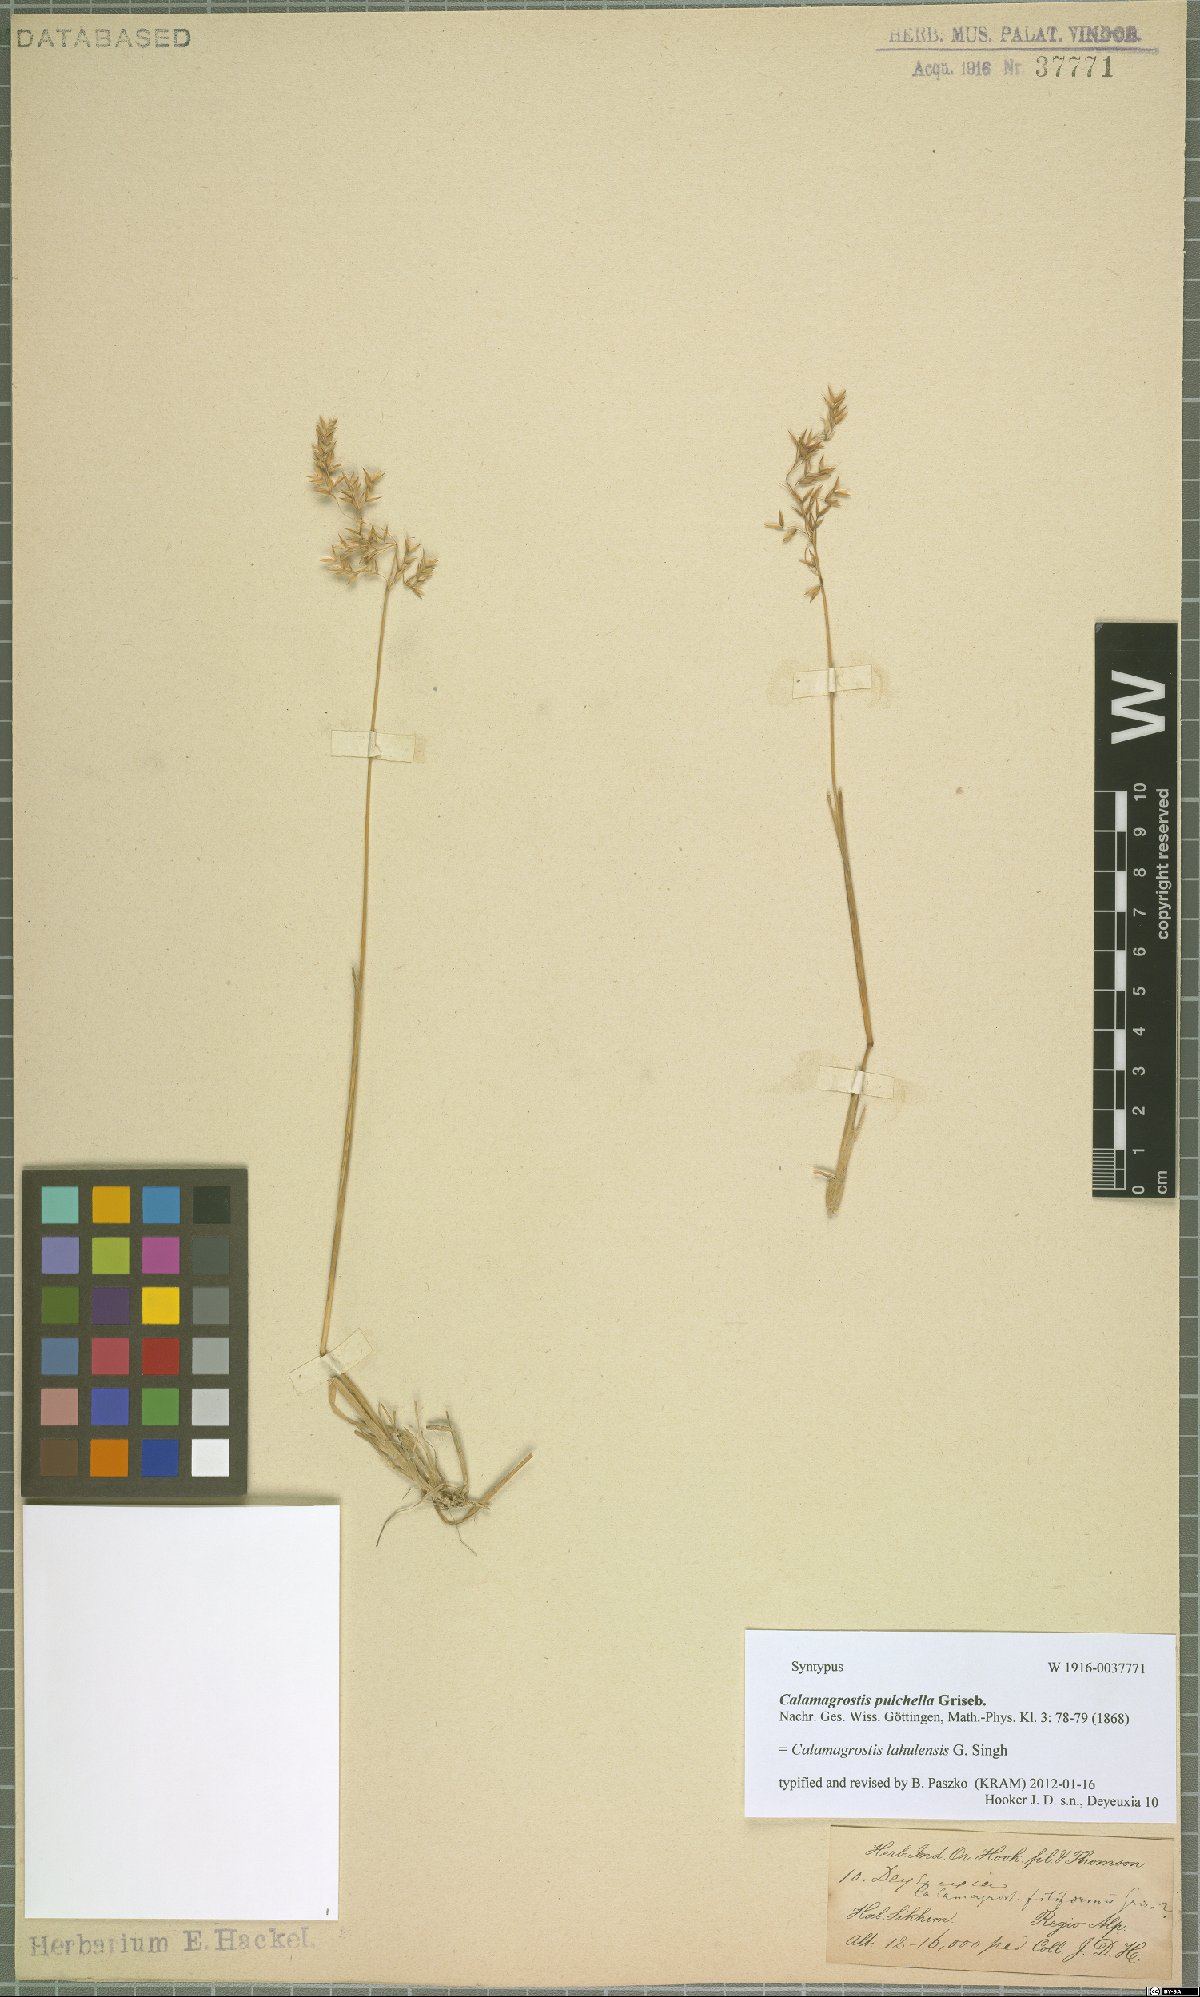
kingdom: Plantae
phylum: Tracheophyta
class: Liliopsida
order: Poales
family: Poaceae
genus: Calamagrostis
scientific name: Calamagrostis lahulensis
